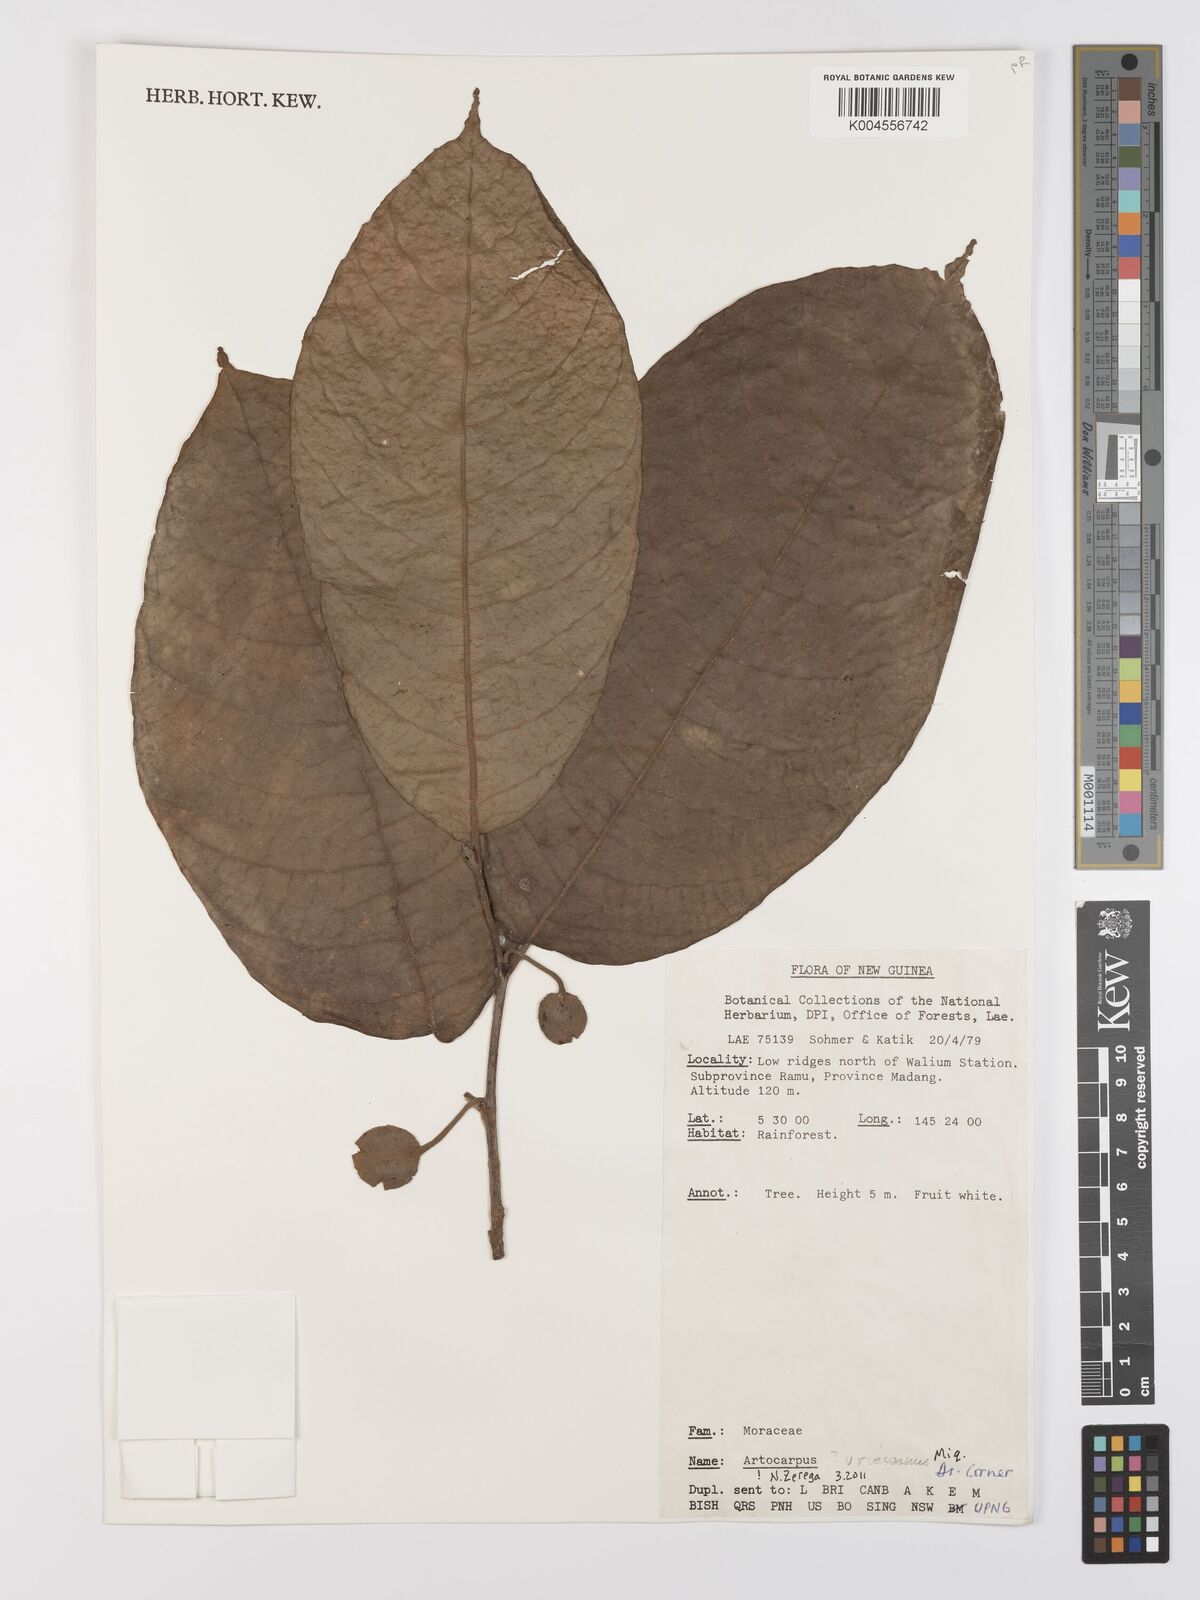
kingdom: Plantae
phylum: Tracheophyta
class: Magnoliopsida
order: Rosales
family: Moraceae
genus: Artocarpus
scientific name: Artocarpus vrieseanus
